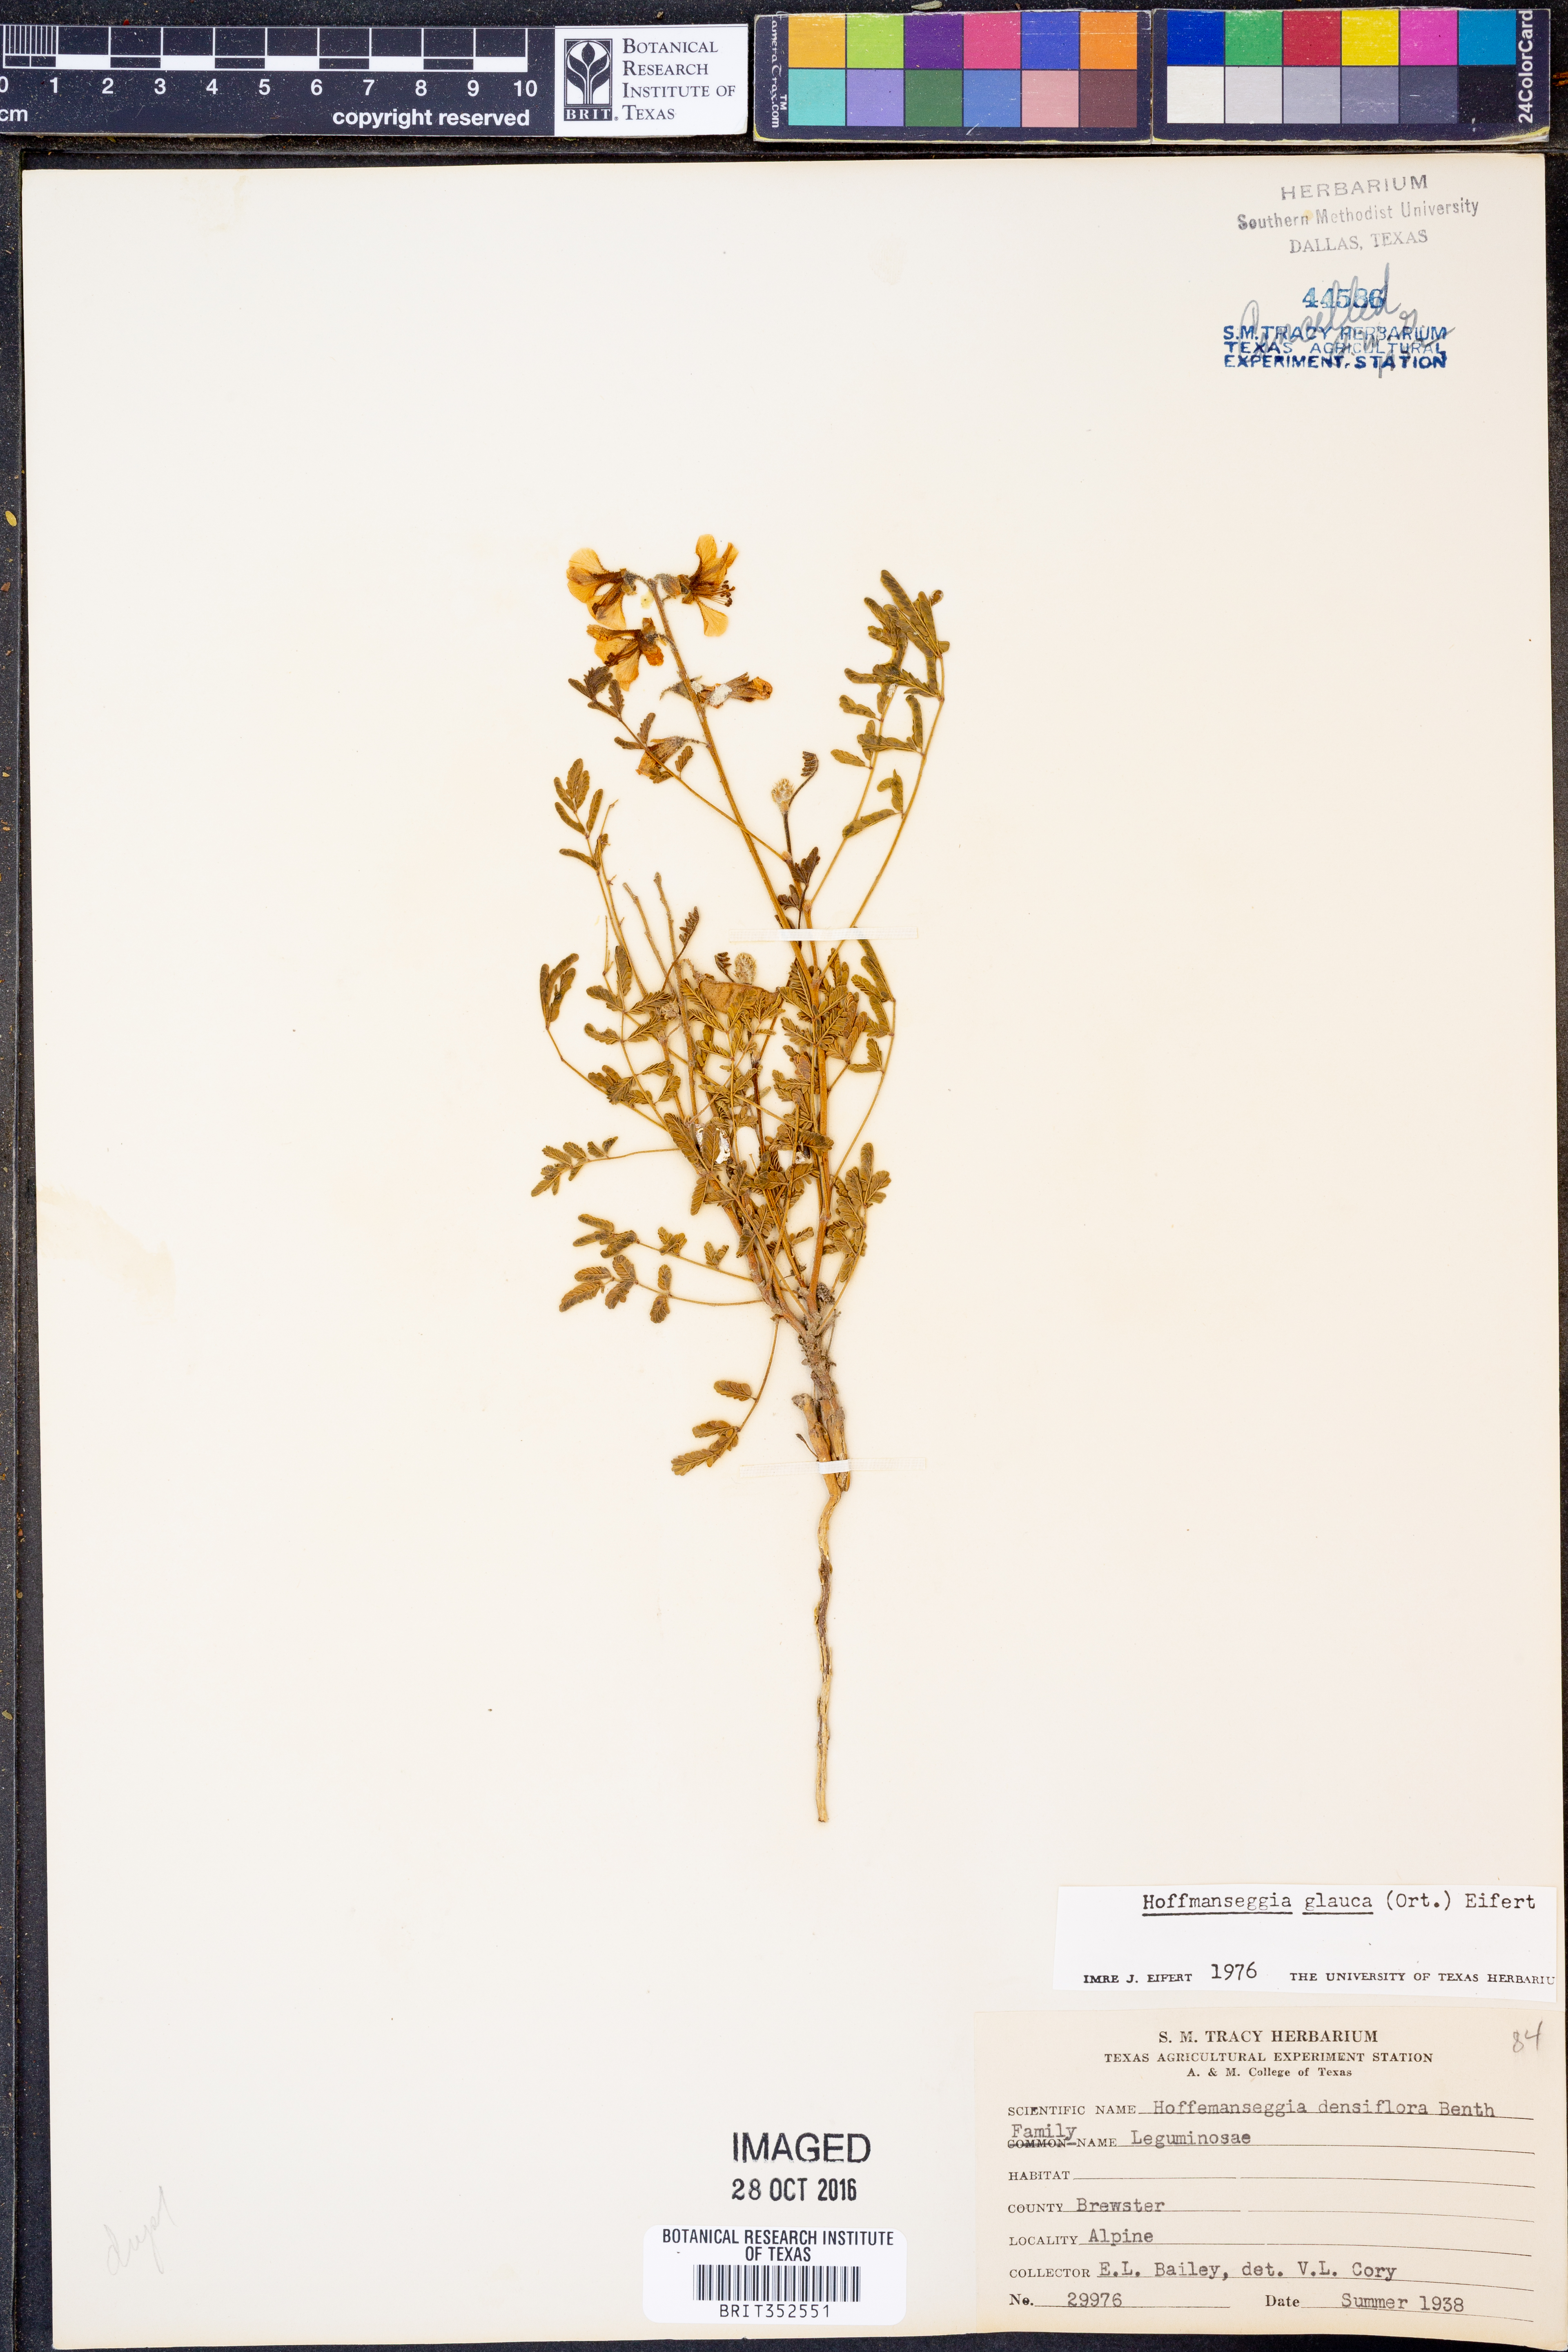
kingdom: Plantae
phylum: Tracheophyta
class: Magnoliopsida
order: Fabales
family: Fabaceae
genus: Hoffmannseggia
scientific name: Hoffmannseggia
